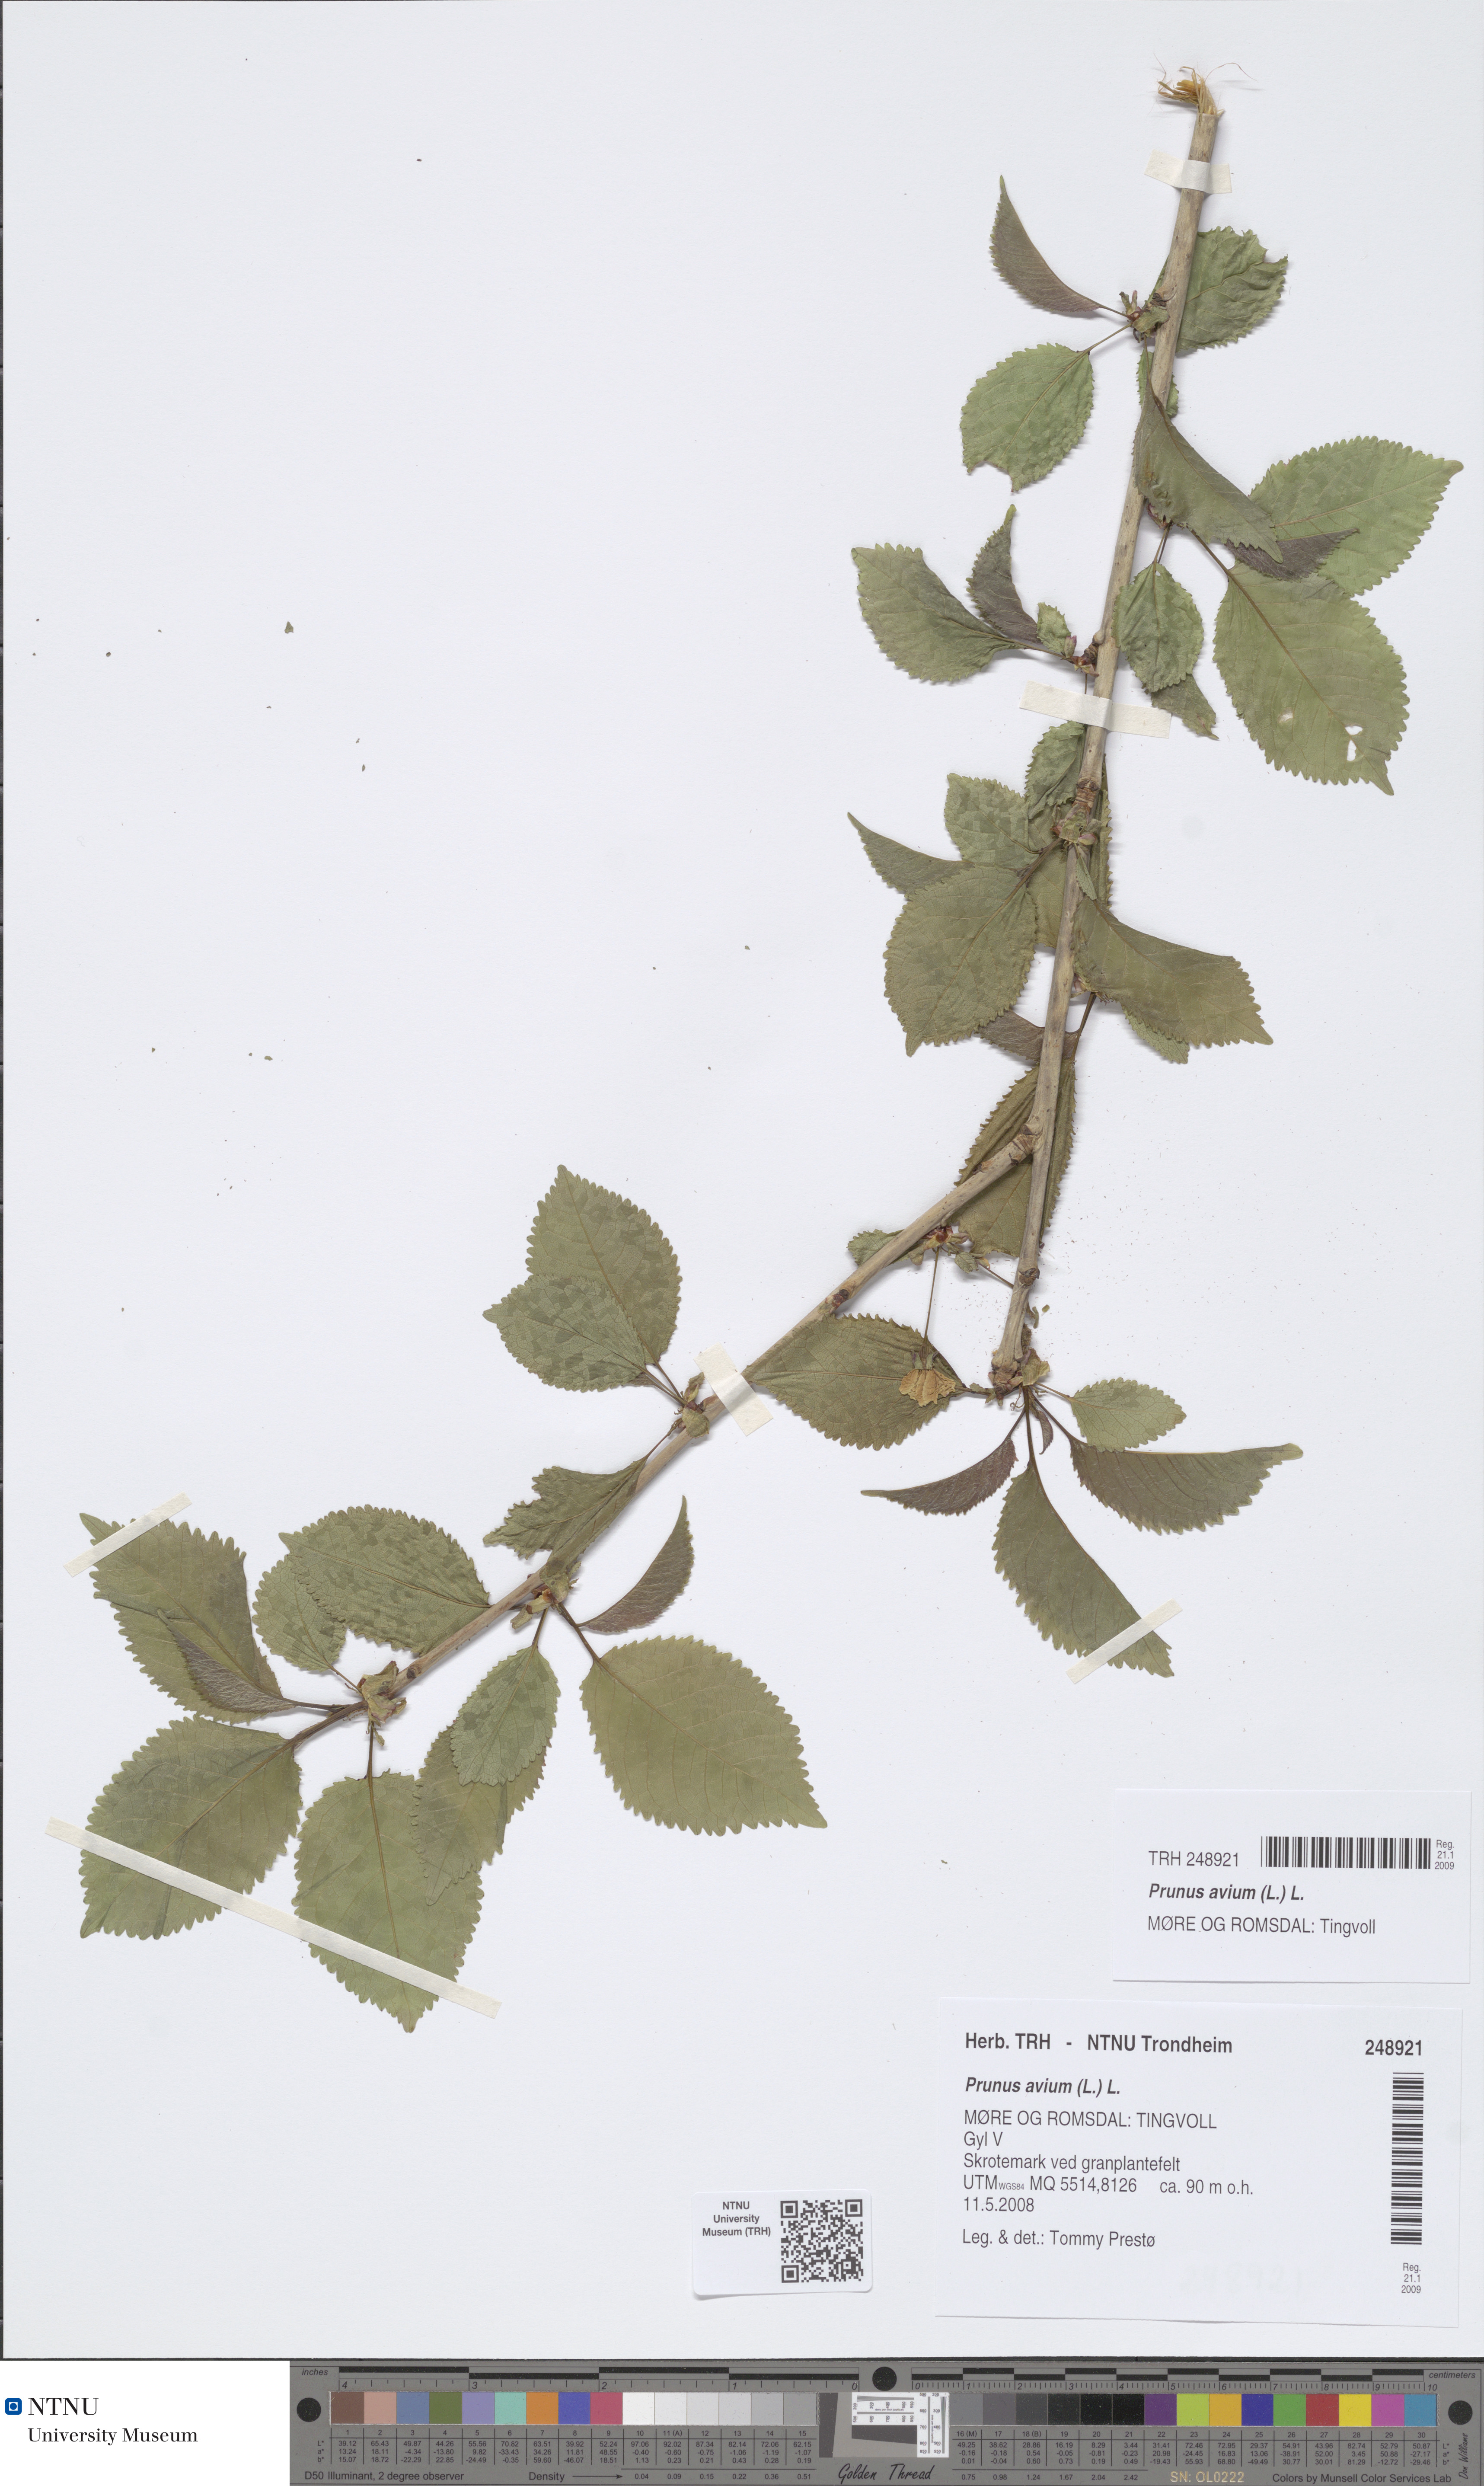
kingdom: Plantae
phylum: Tracheophyta
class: Magnoliopsida
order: Rosales
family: Rosaceae
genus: Prunus
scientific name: Prunus avium
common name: Sweet cherry
